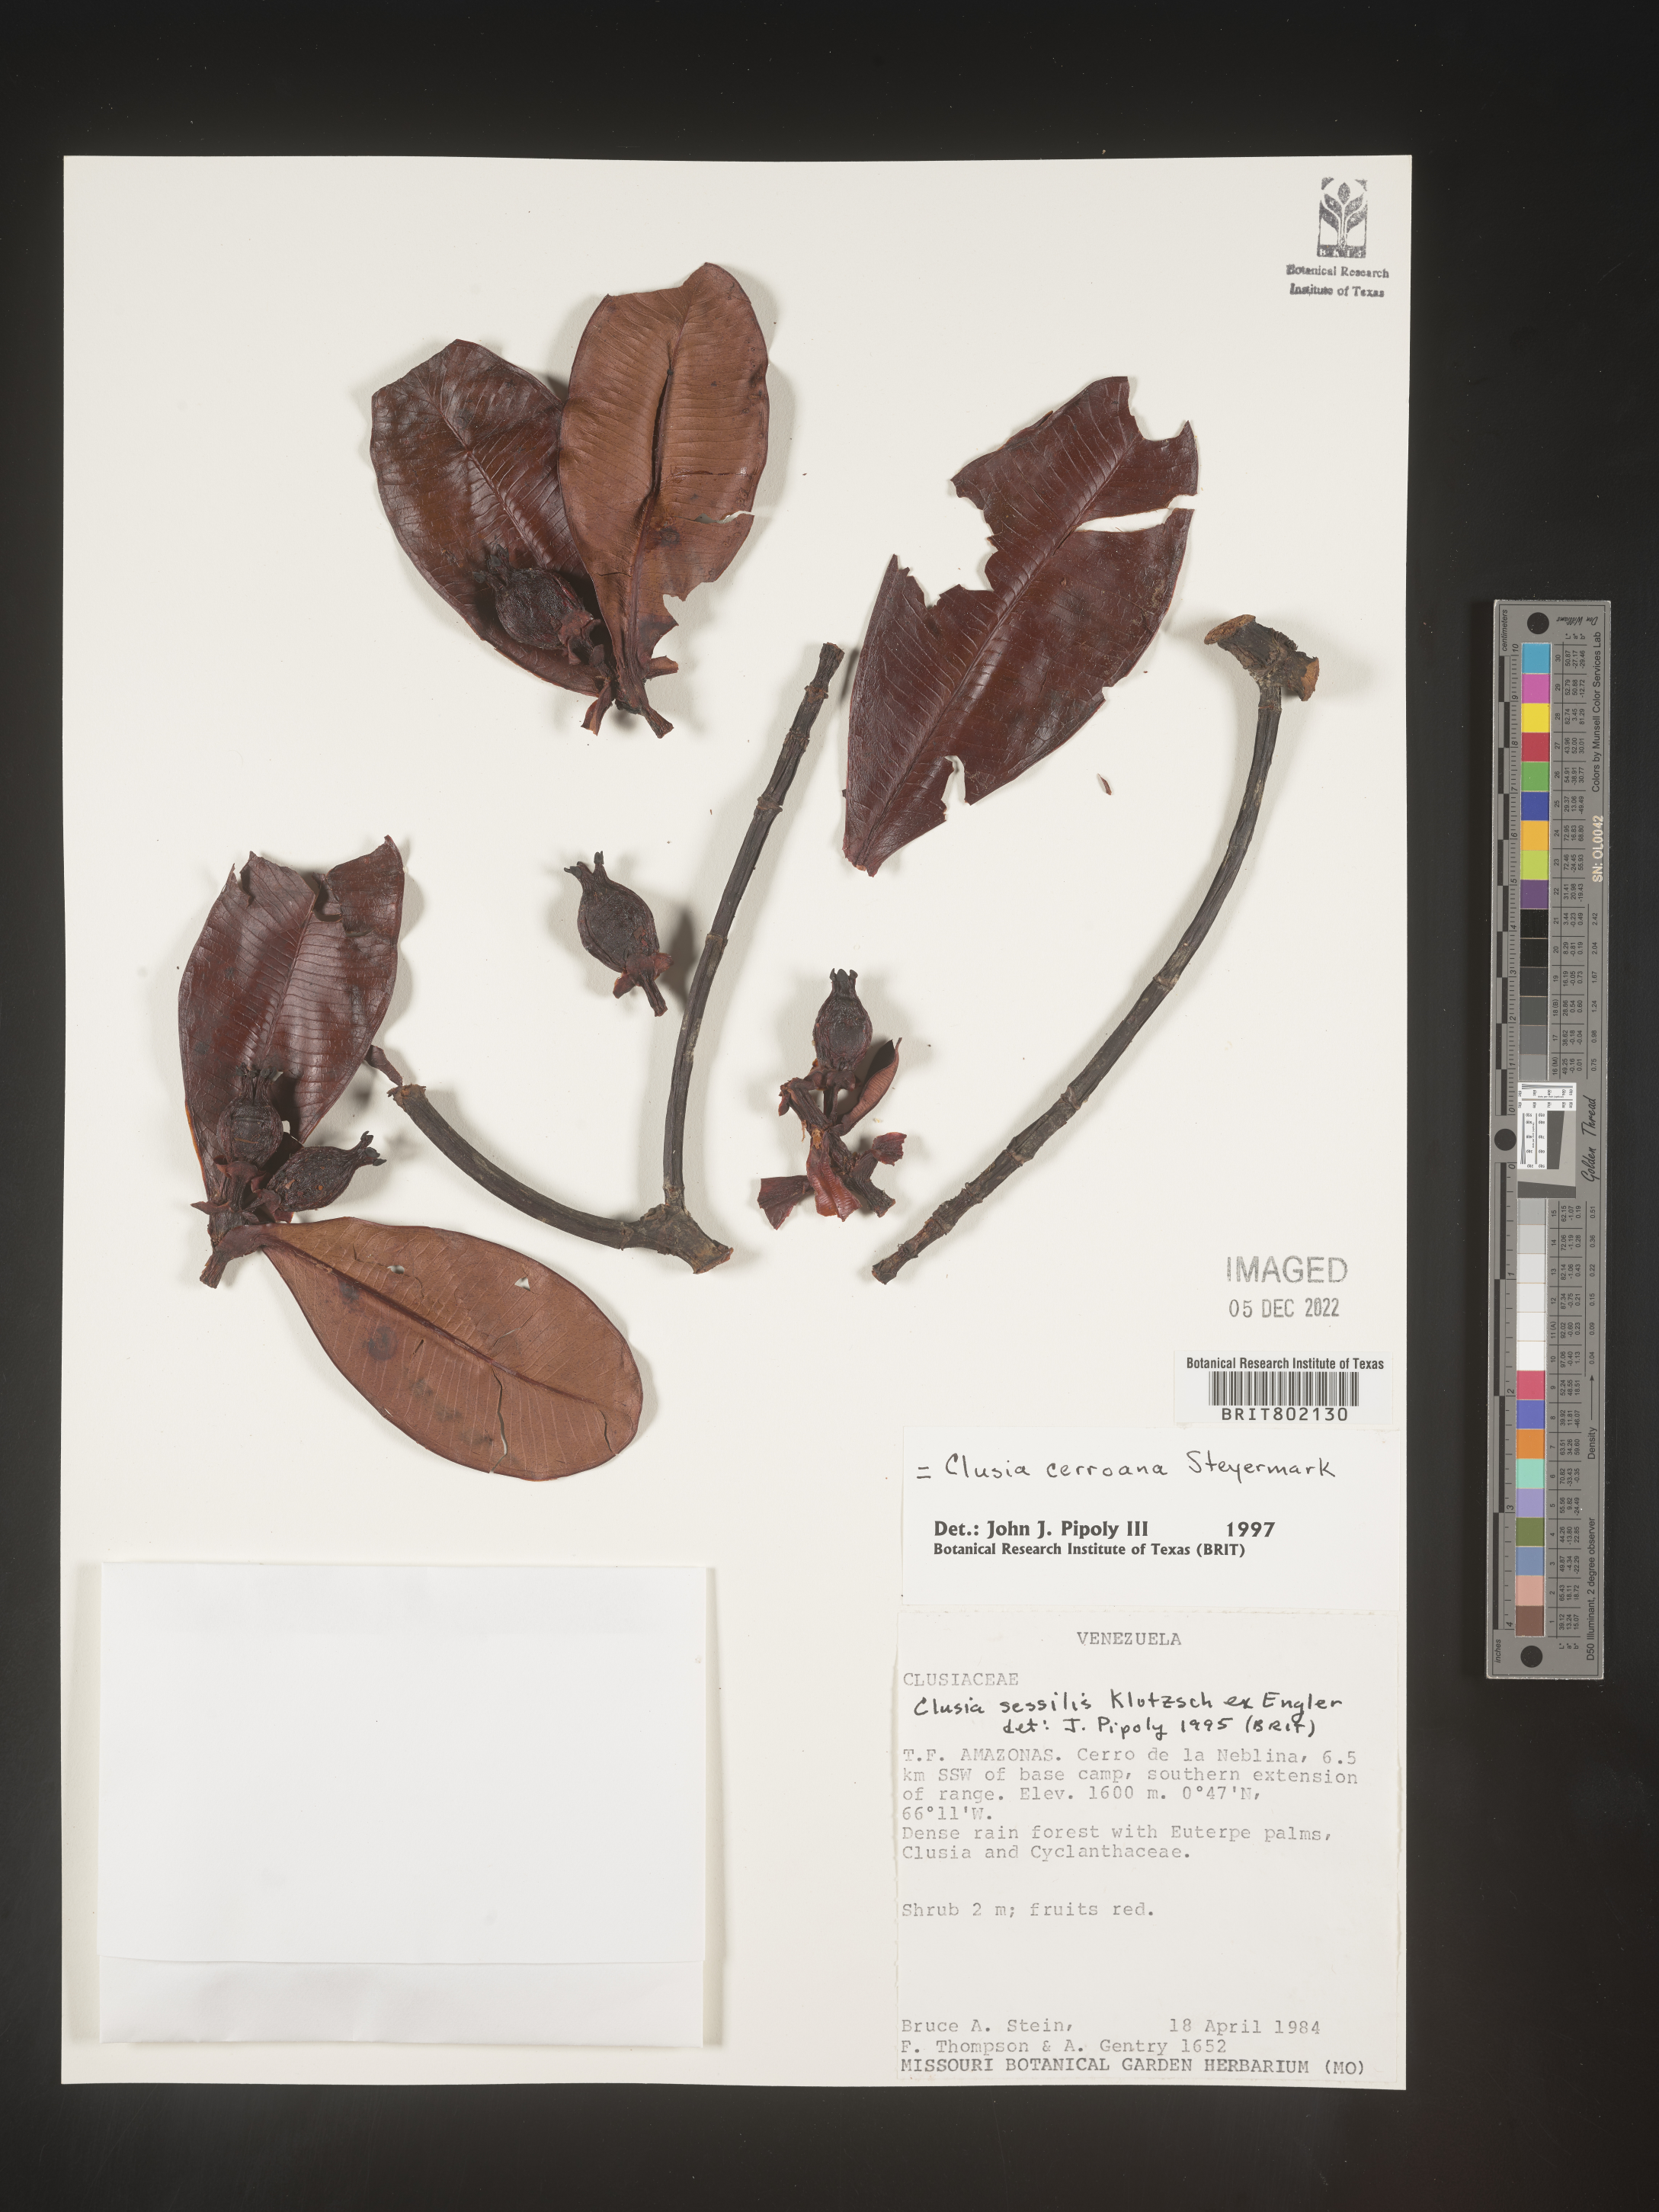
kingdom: Plantae
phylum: Tracheophyta
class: Magnoliopsida
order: Malpighiales
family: Clusiaceae
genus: Clusia
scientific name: Clusia cerroana
